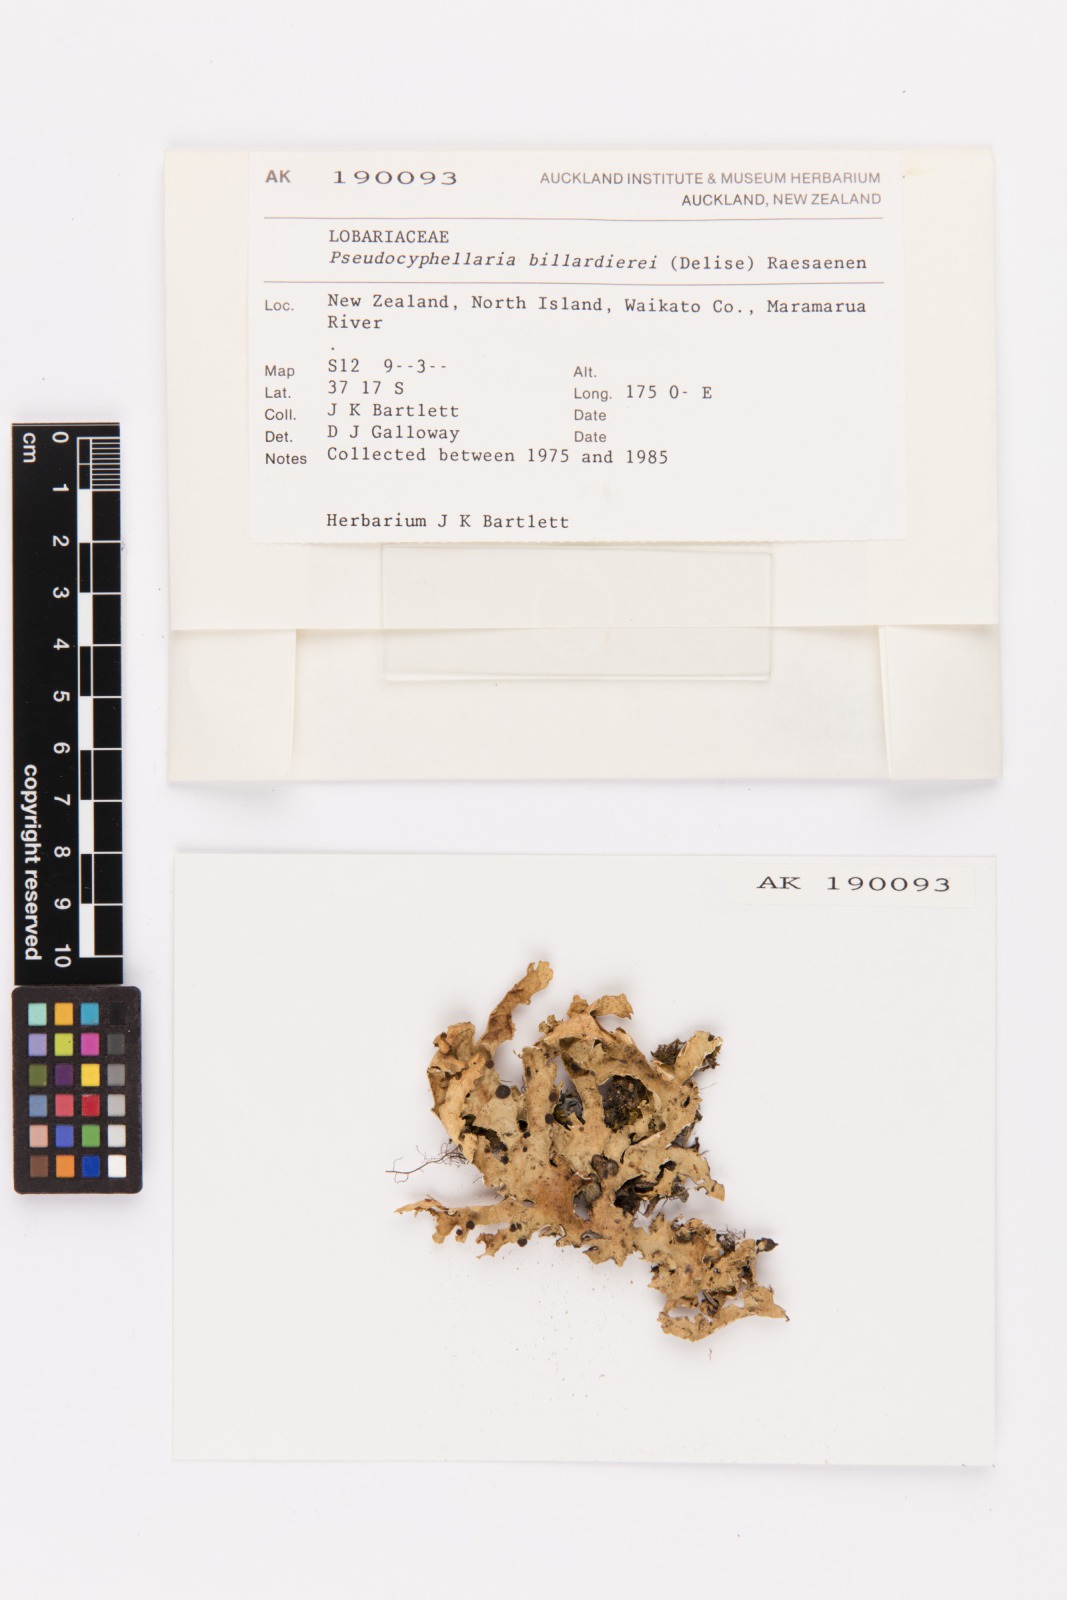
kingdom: Fungi
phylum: Ascomycota
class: Lecanoromycetes
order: Peltigerales
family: Lobariaceae
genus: Pseudocyphellaria
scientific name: Pseudocyphellaria billardierei
